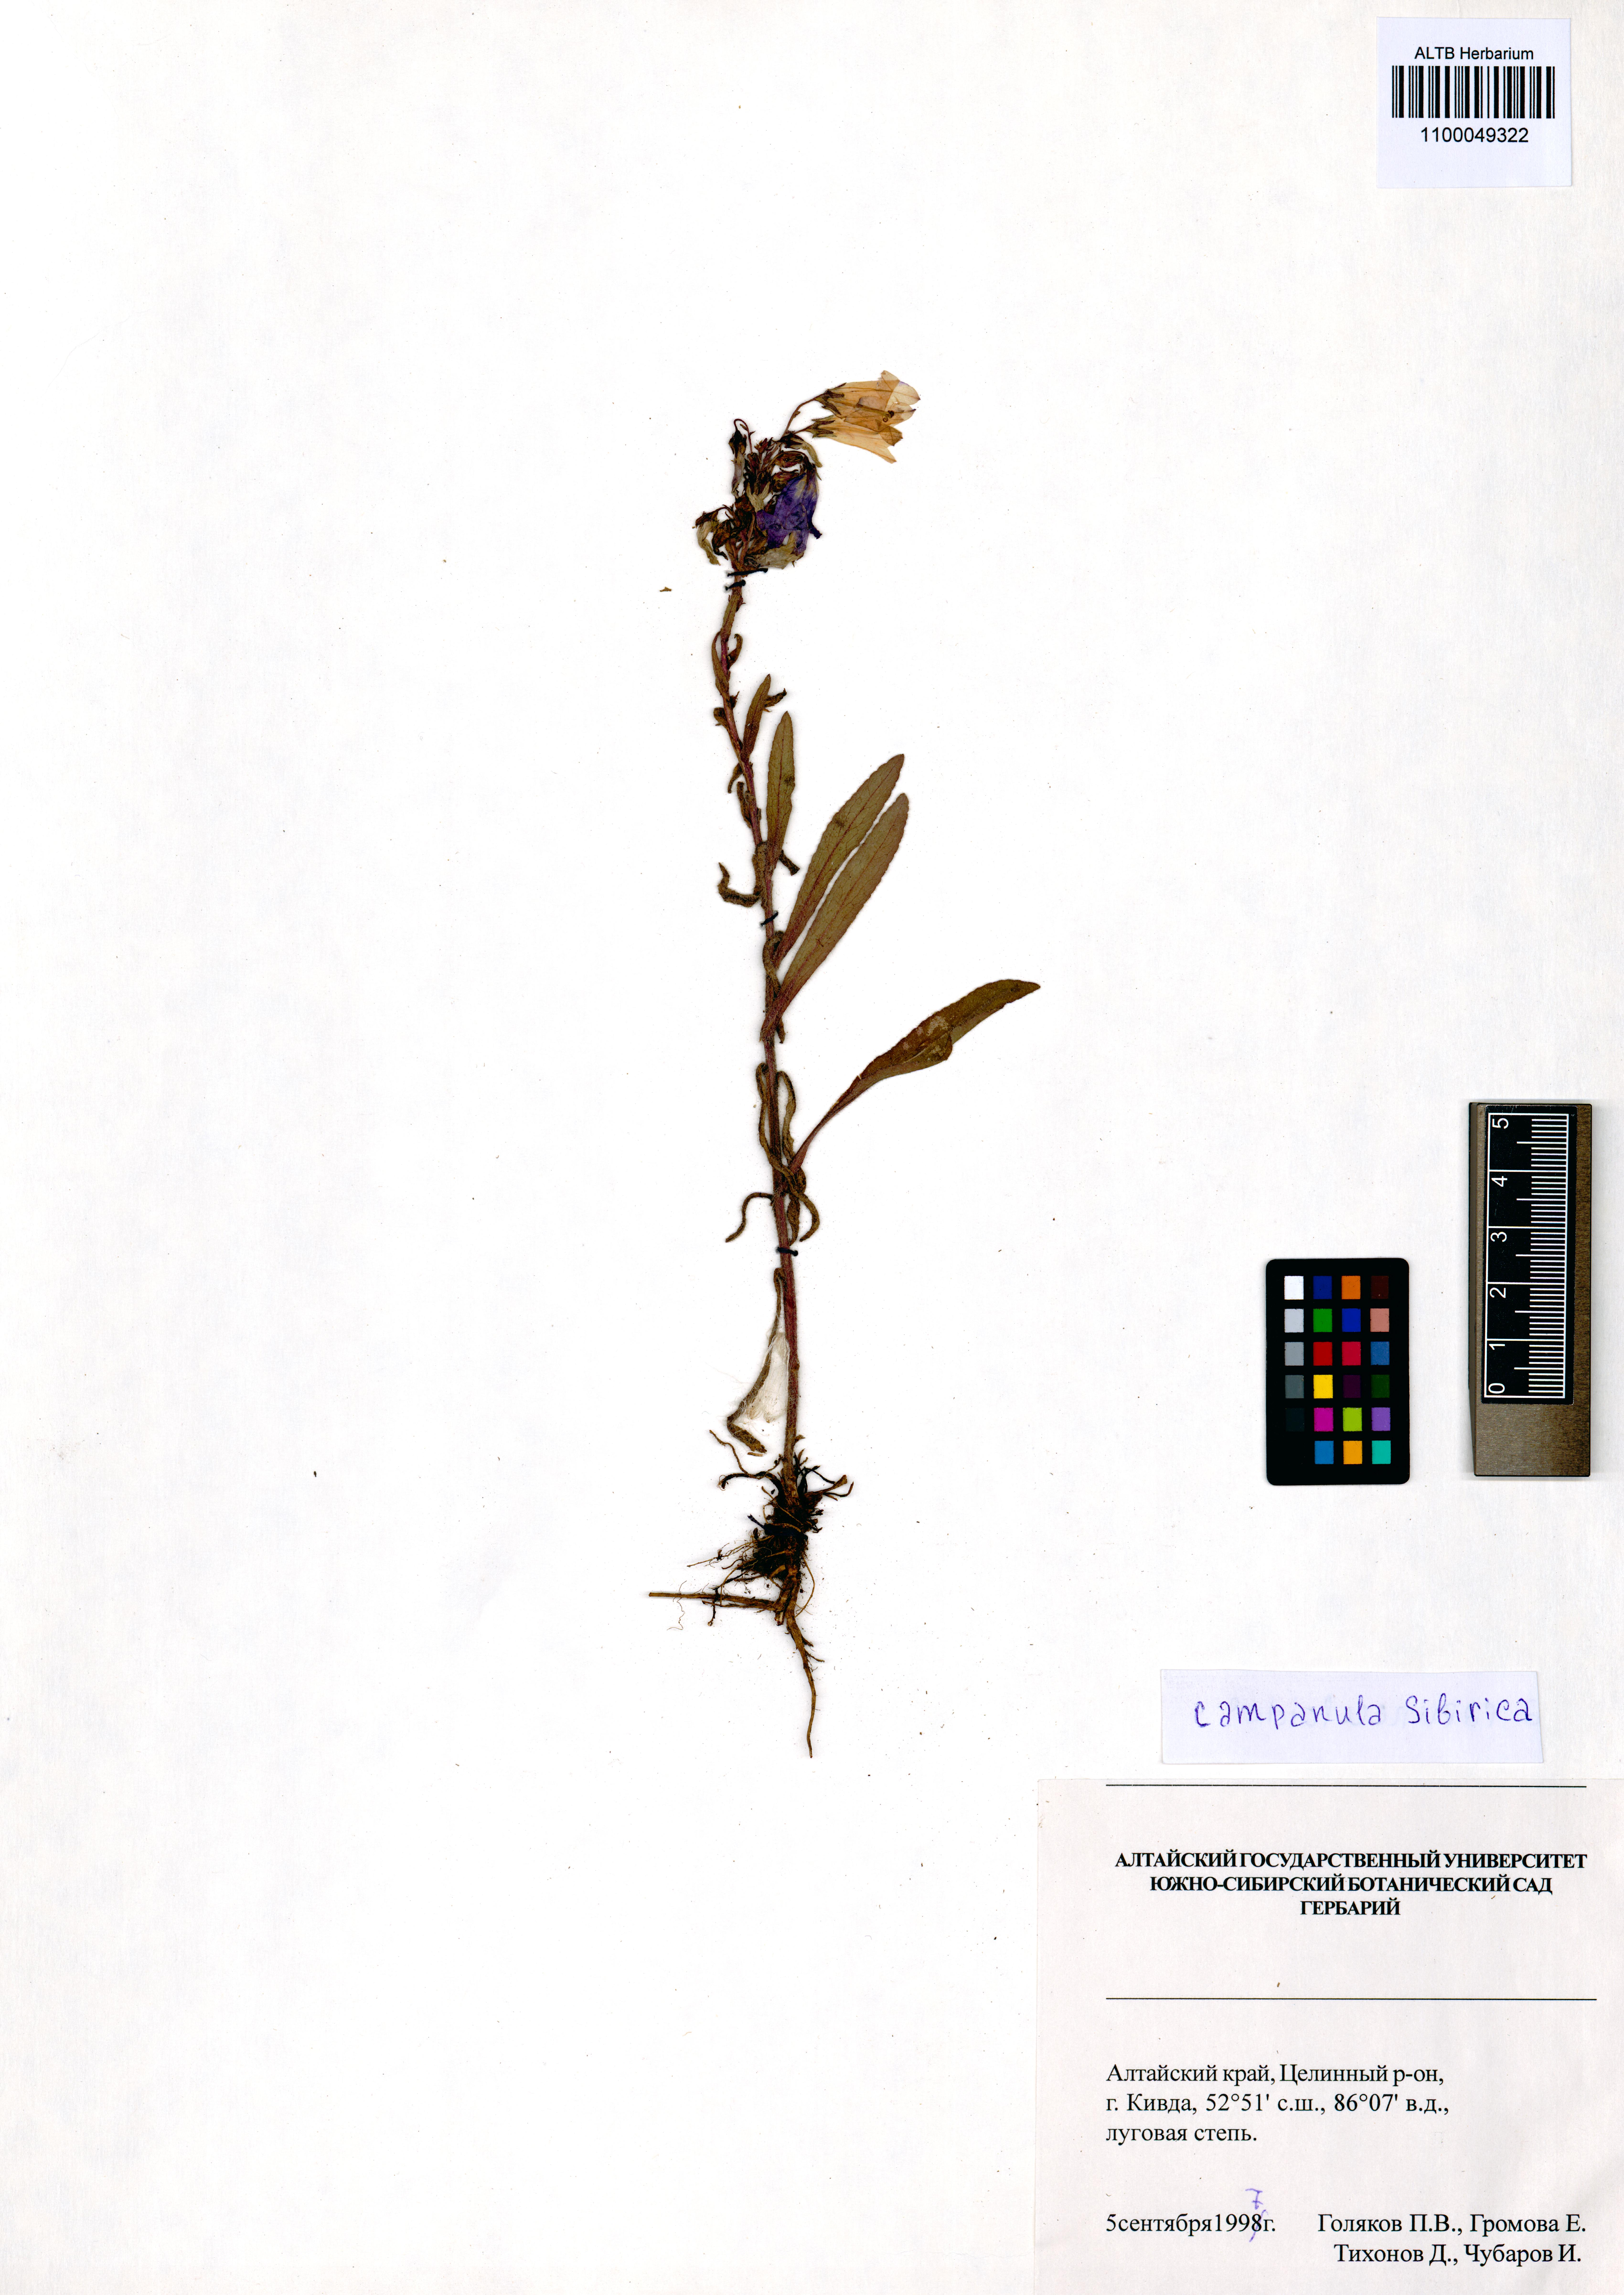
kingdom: Plantae
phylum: Tracheophyta
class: Magnoliopsida
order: Asterales
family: Campanulaceae
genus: Campanula
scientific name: Campanula sibirica
